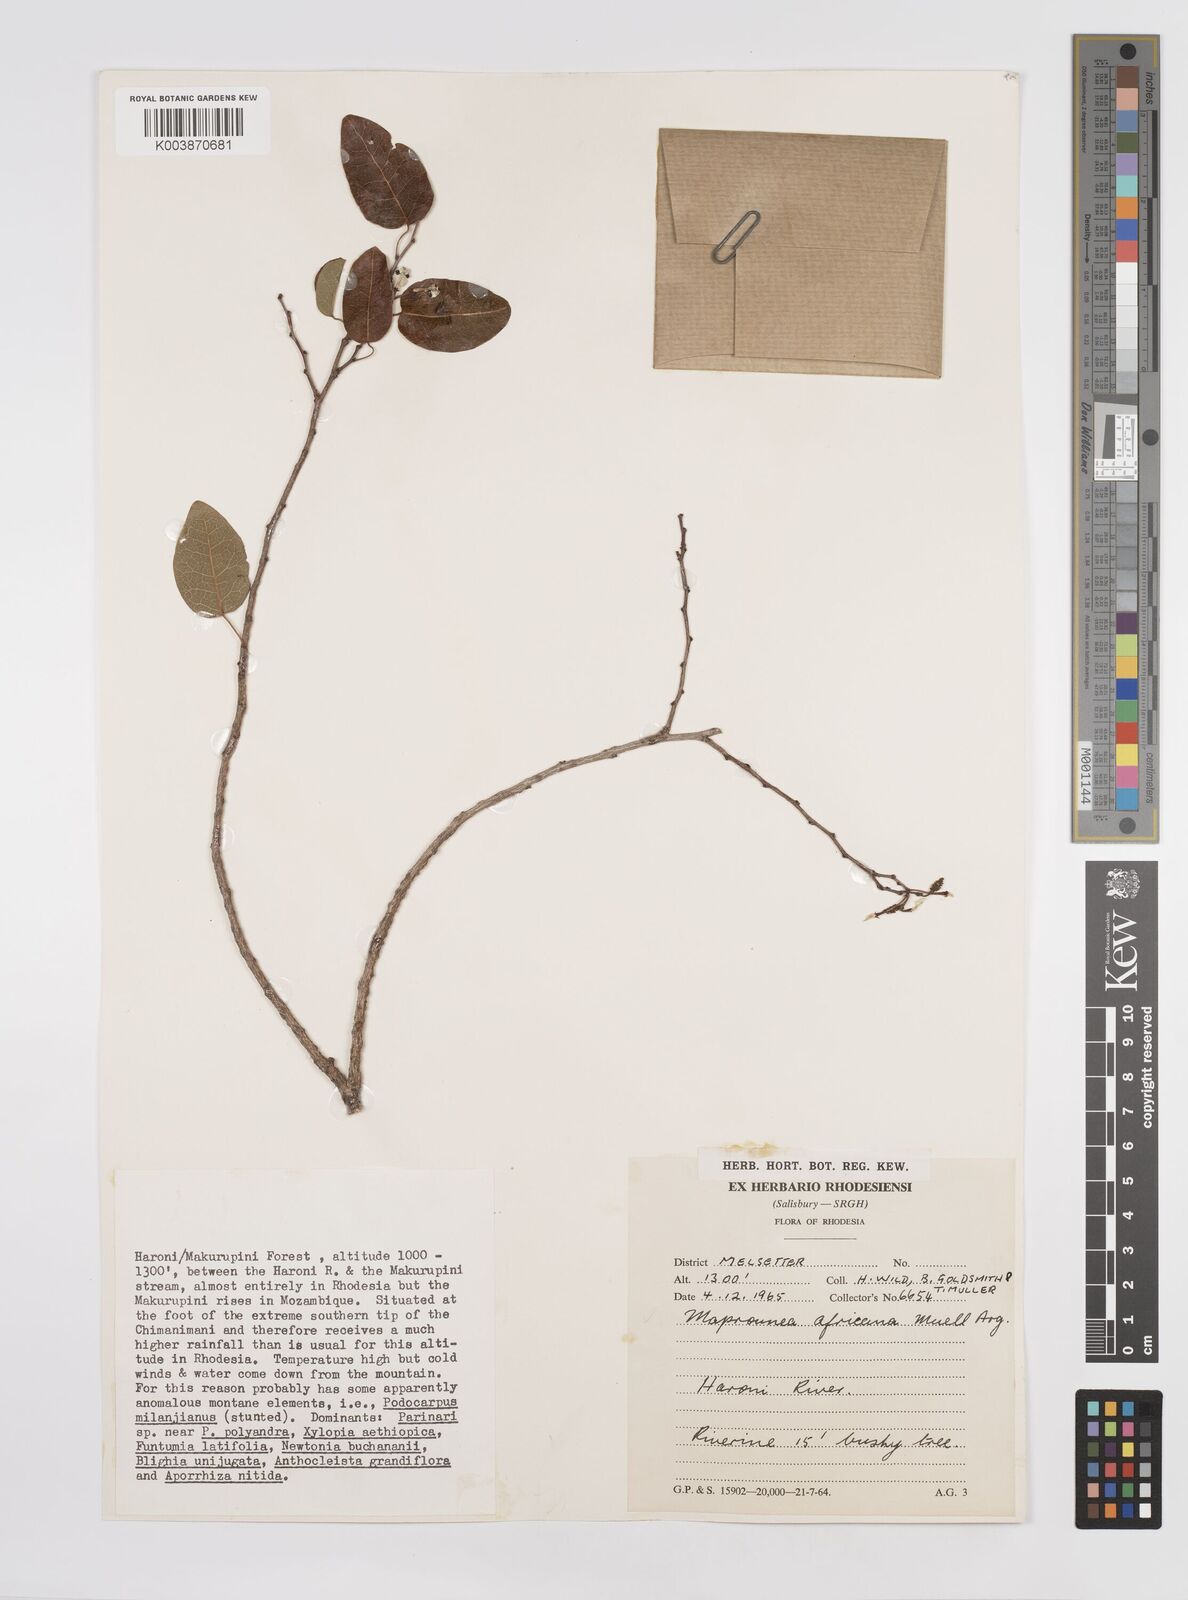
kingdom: Plantae
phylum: Tracheophyta
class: Magnoliopsida
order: Malpighiales
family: Euphorbiaceae
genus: Maprounea
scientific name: Maprounea africana
